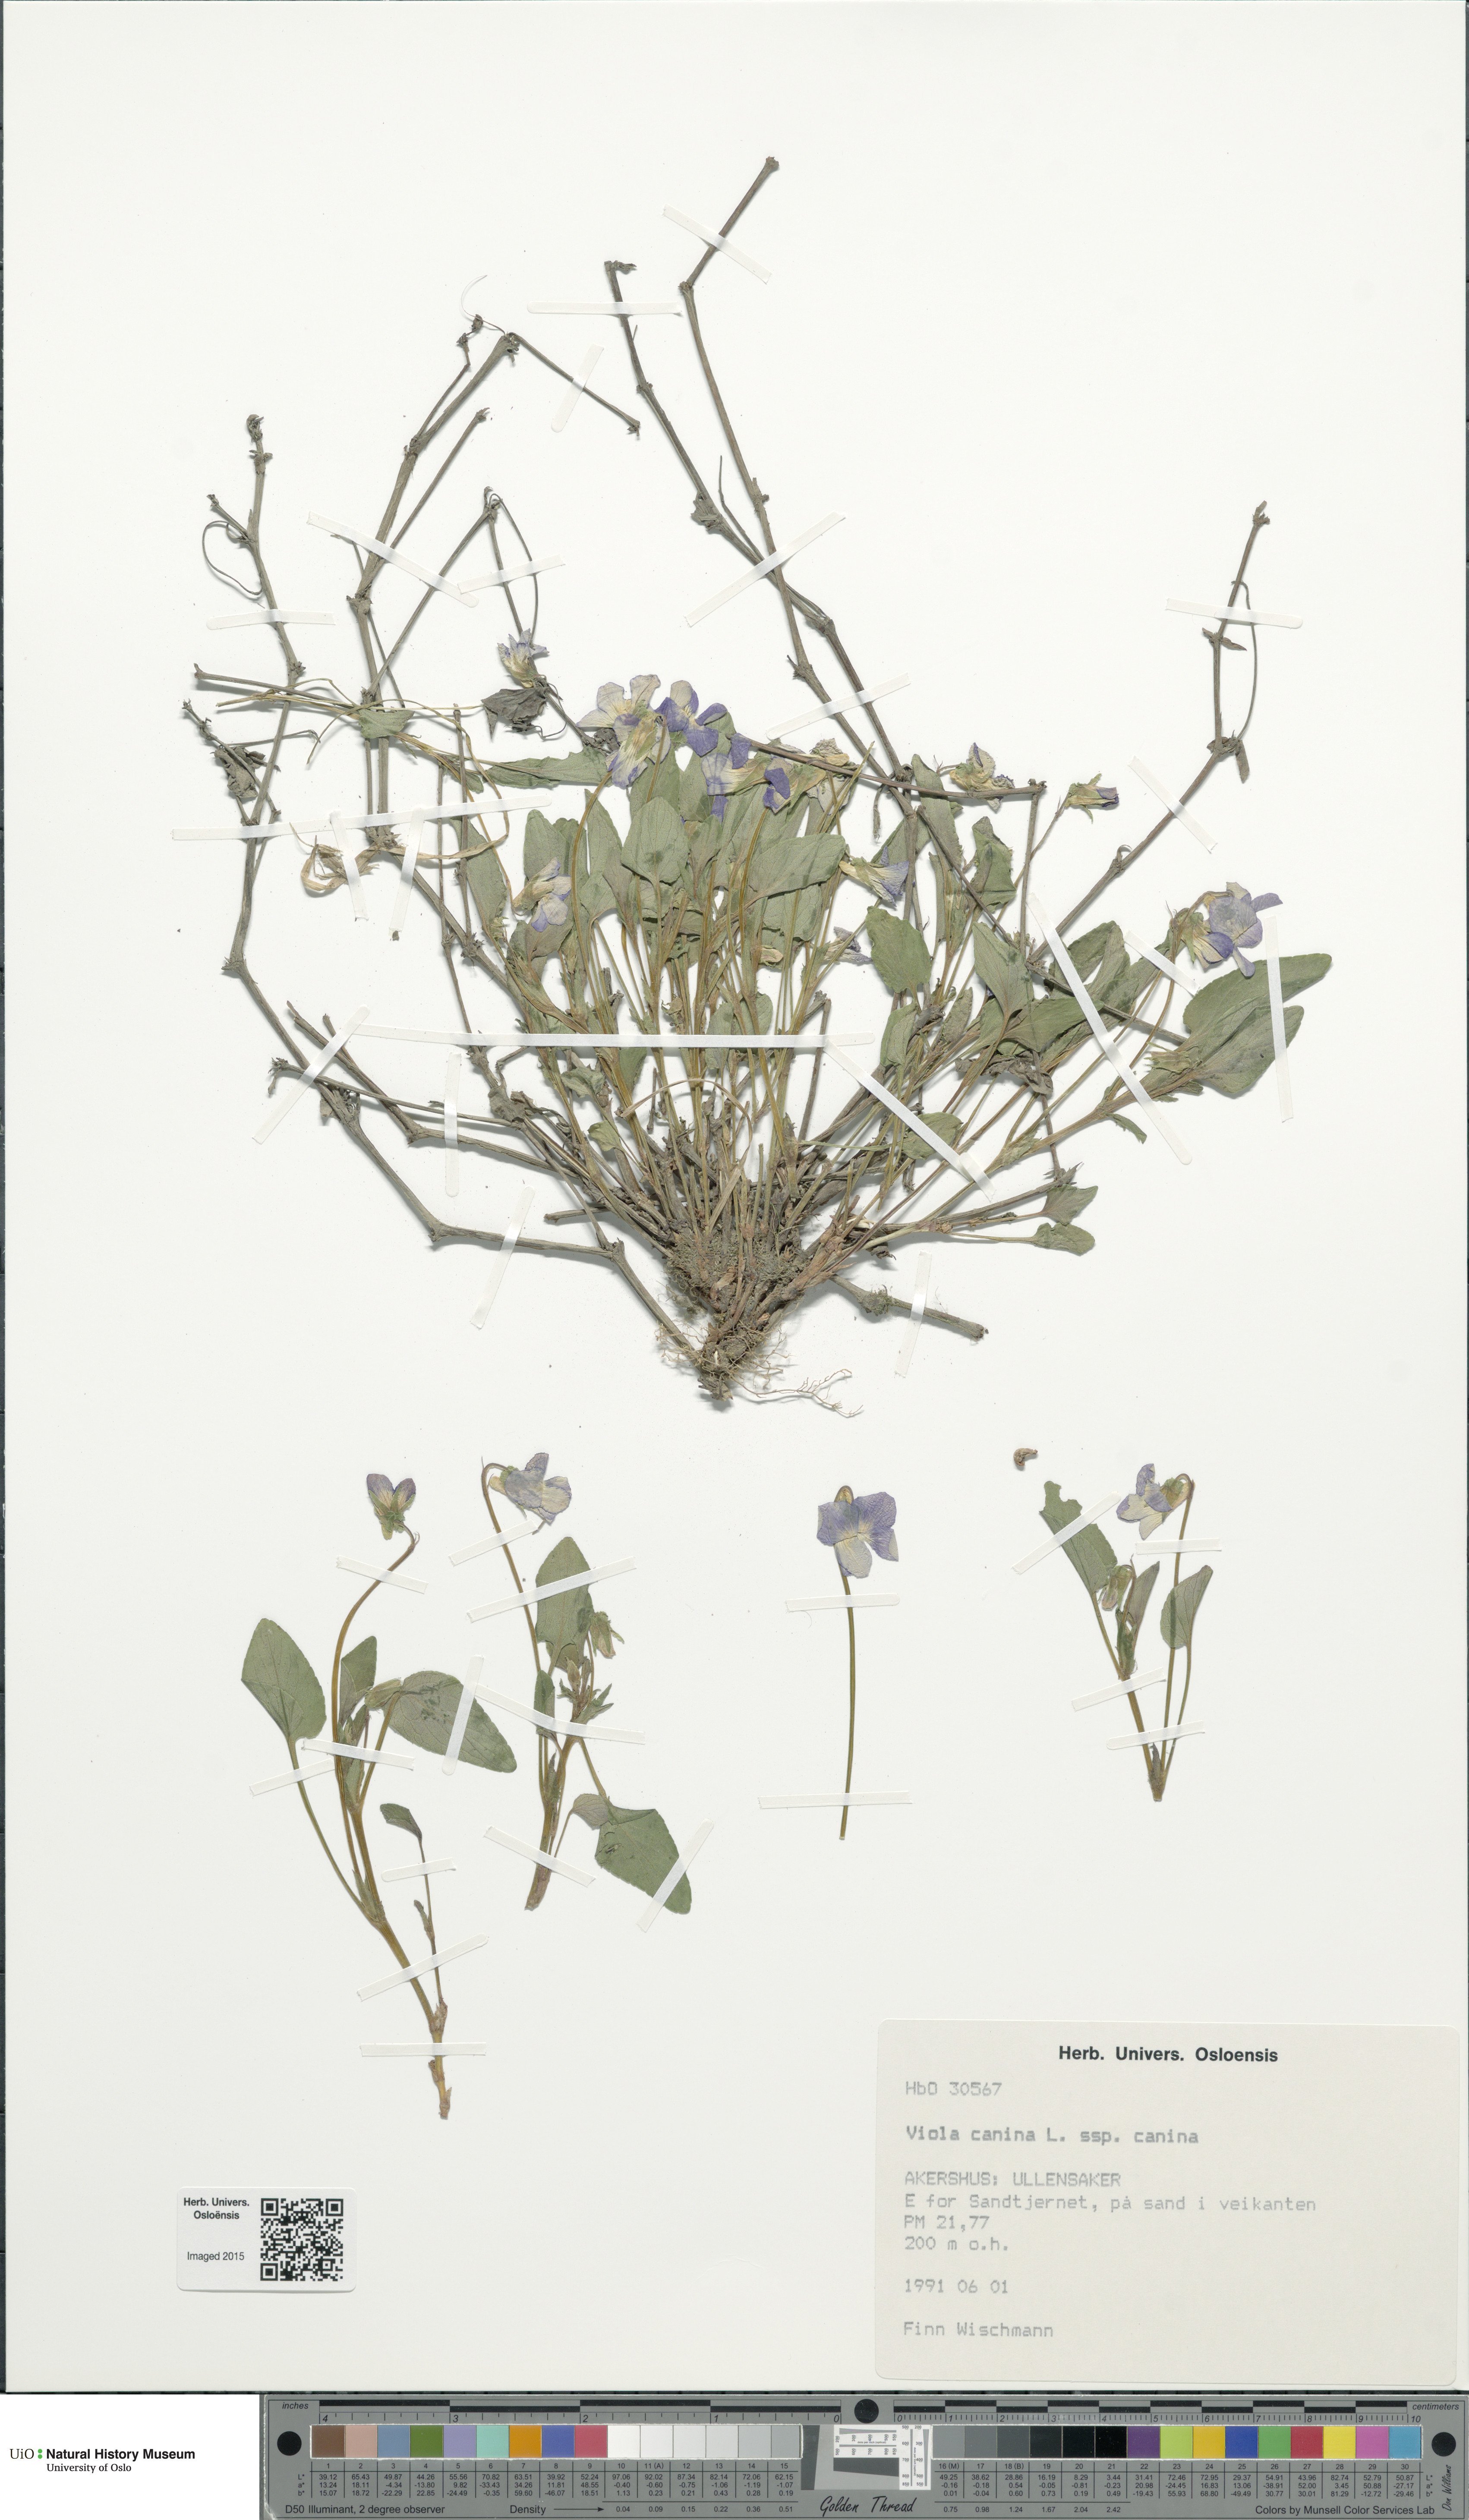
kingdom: Plantae
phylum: Tracheophyta
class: Magnoliopsida
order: Malpighiales
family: Violaceae
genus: Viola
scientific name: Viola canina
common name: Heath dog-violet
